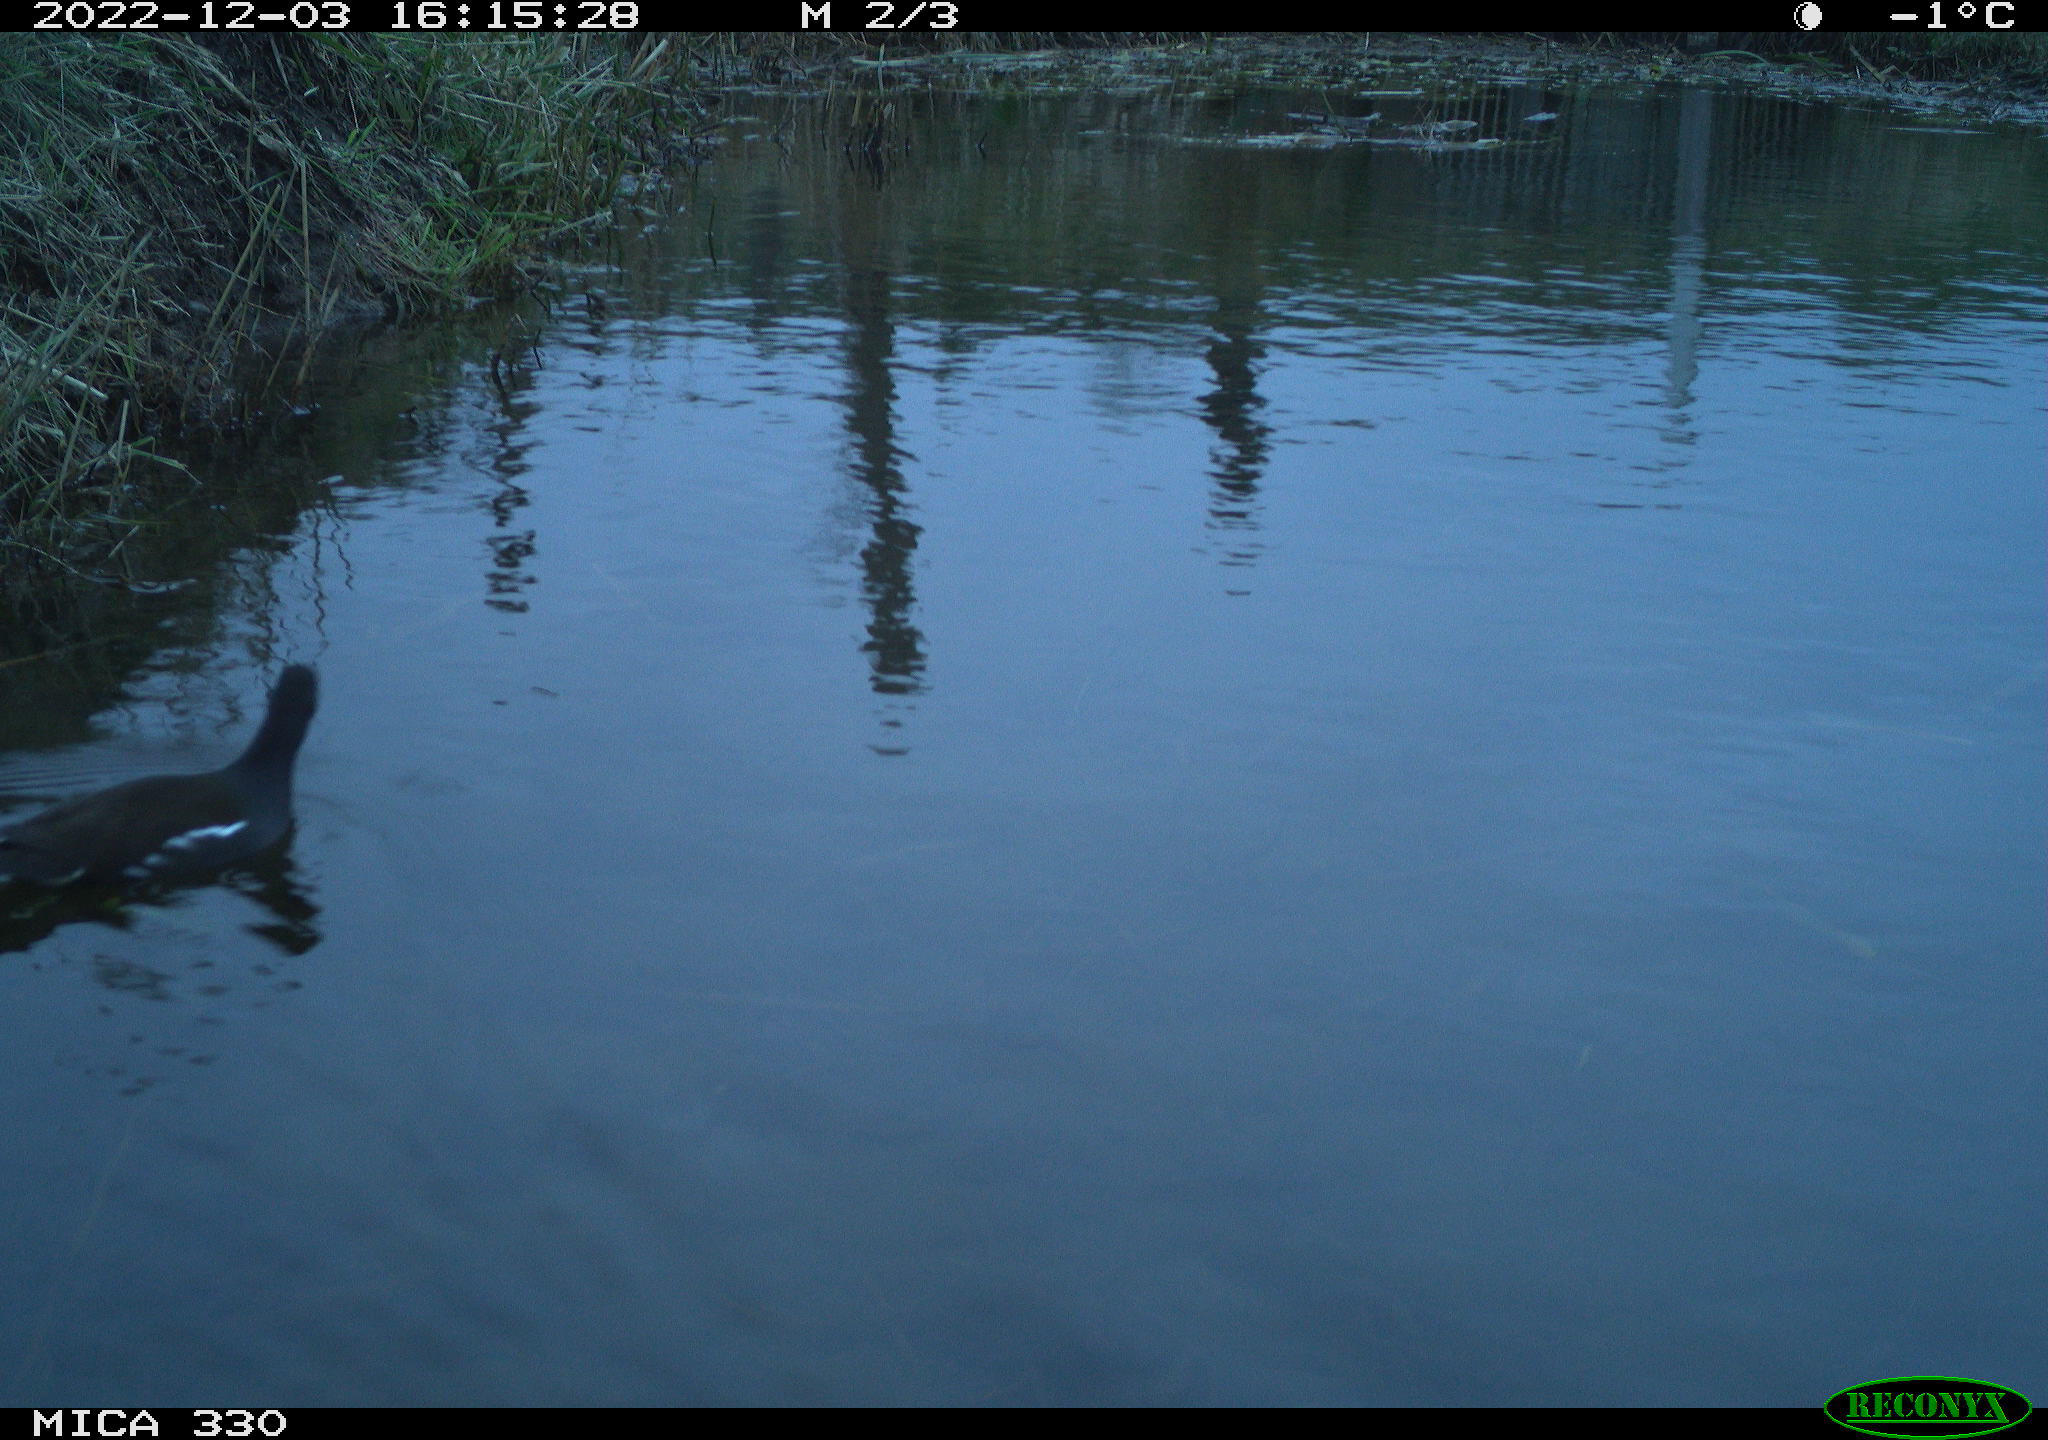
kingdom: Animalia
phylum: Chordata
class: Aves
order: Gruiformes
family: Rallidae
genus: Gallinula
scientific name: Gallinula chloropus
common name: Common moorhen
